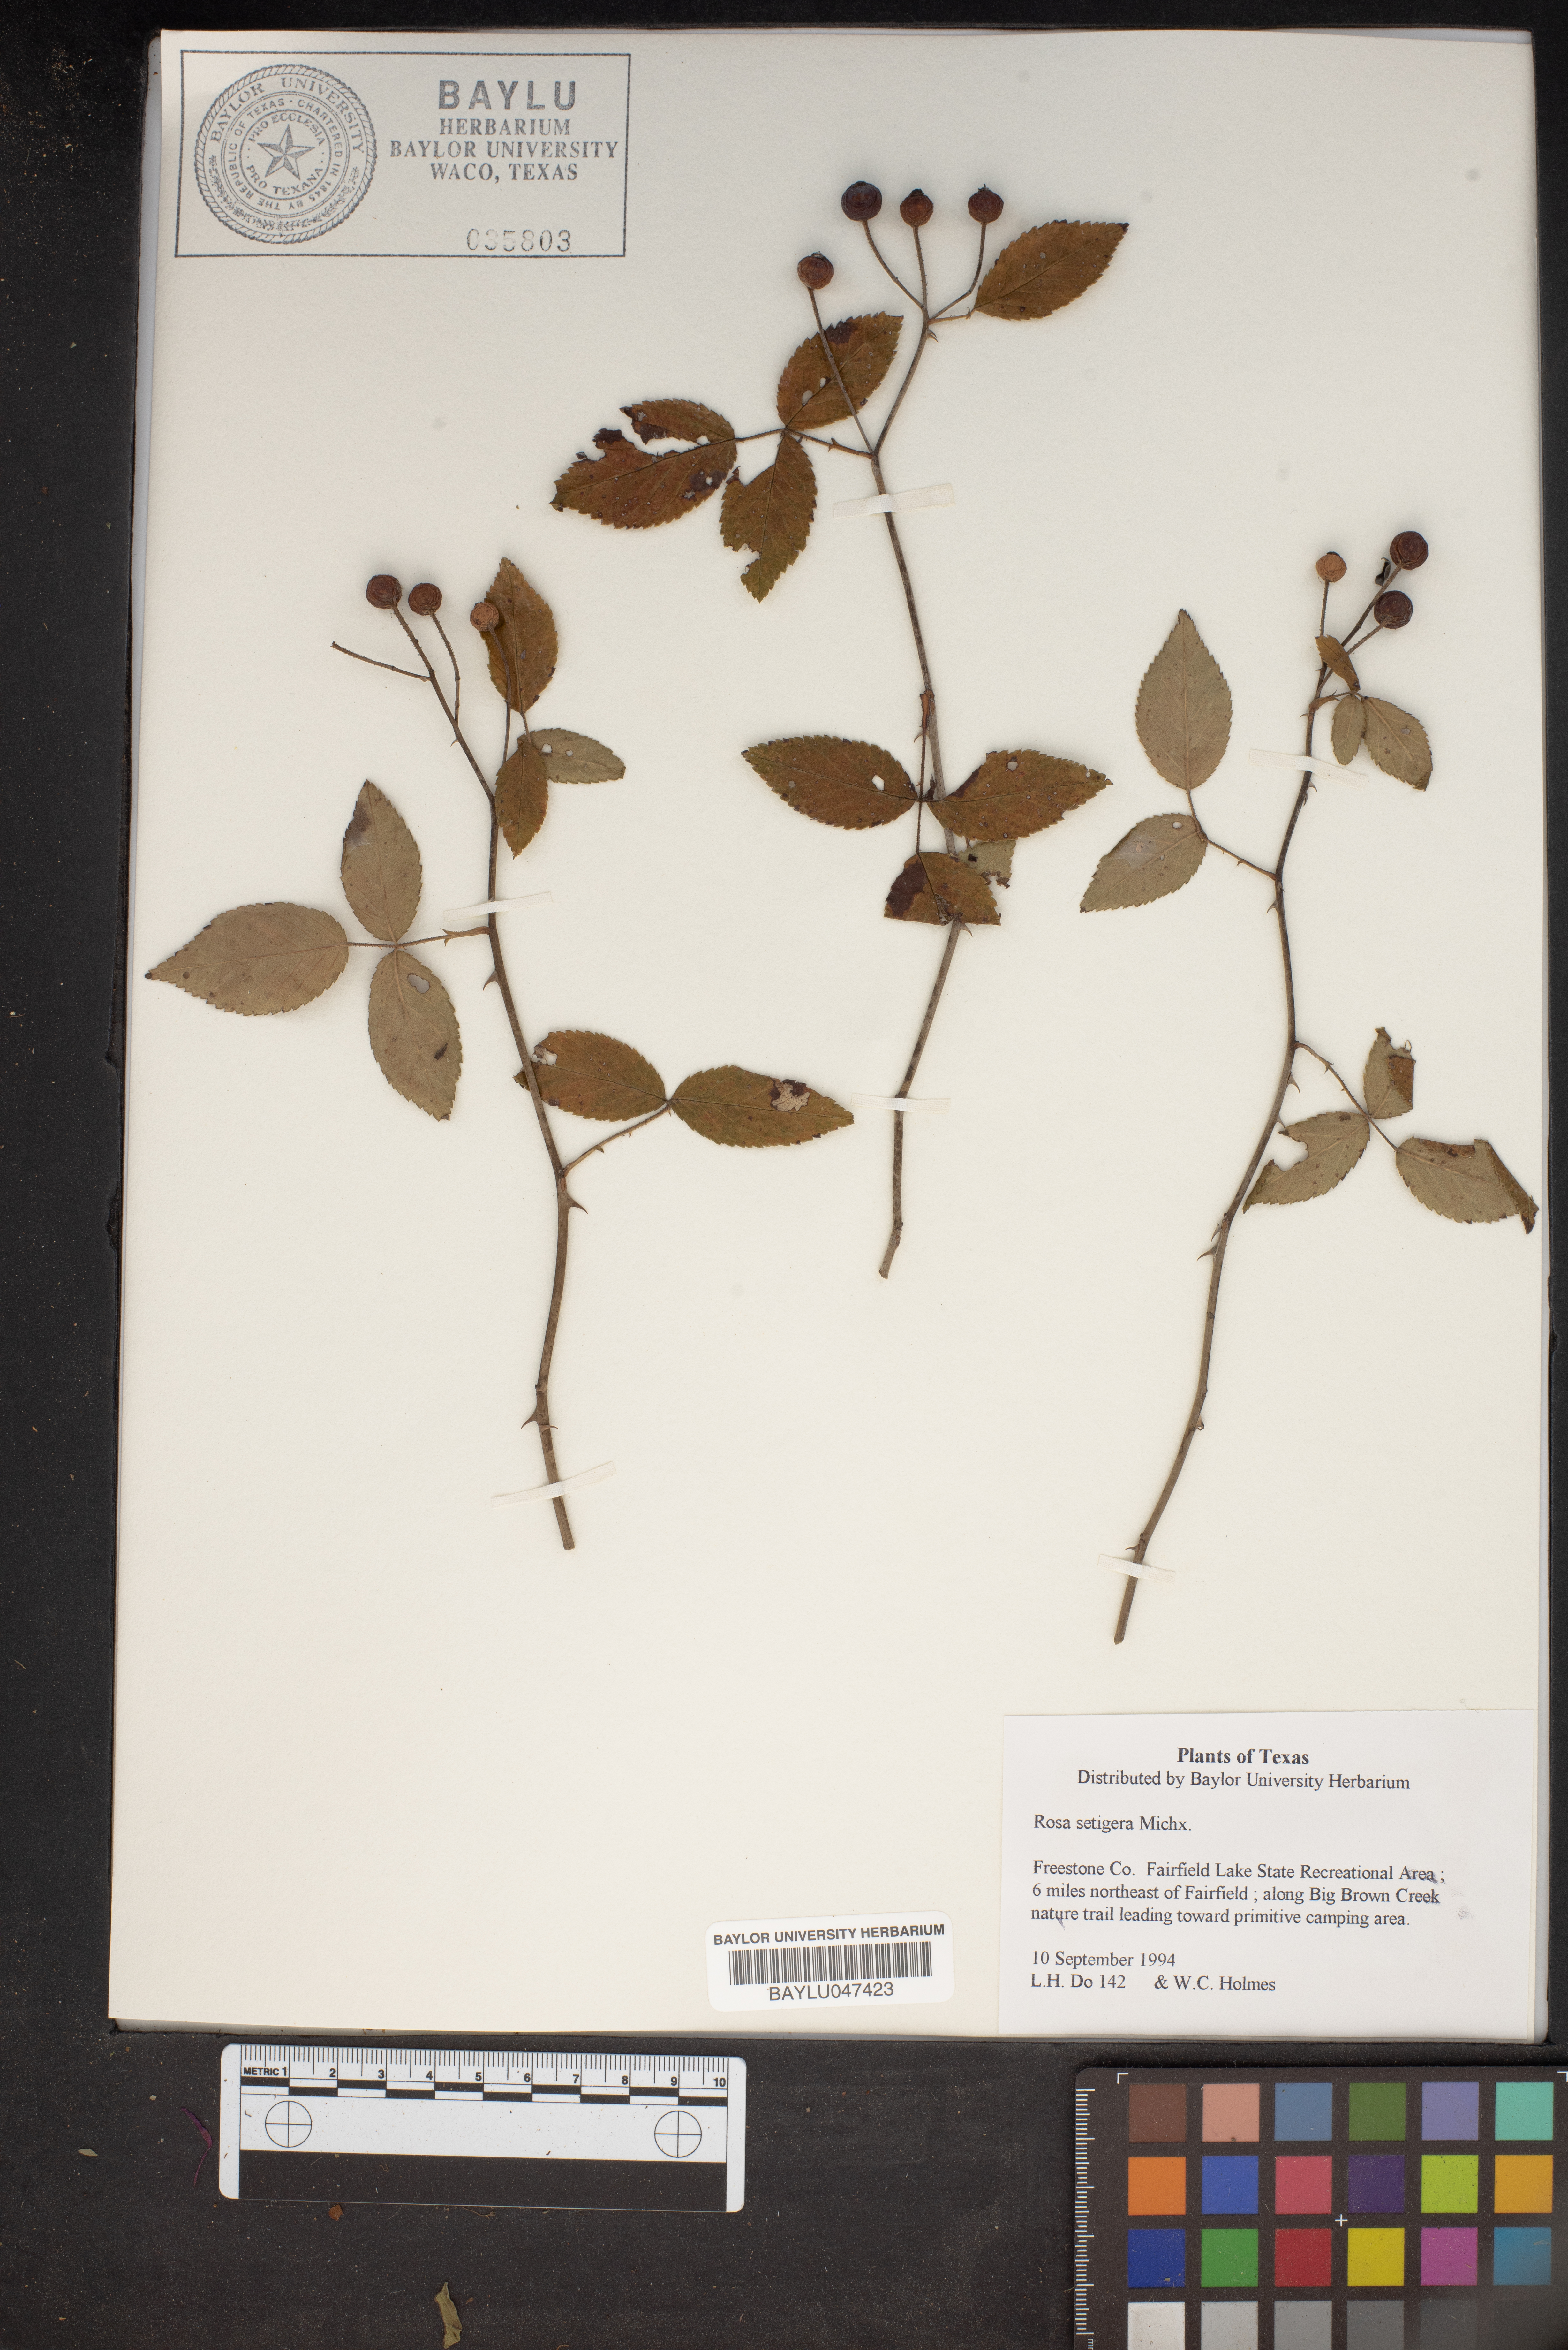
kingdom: Plantae
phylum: Tracheophyta
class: Magnoliopsida
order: Rosales
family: Rosaceae
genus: Rosa
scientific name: Rosa setigera
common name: Prairie rose
